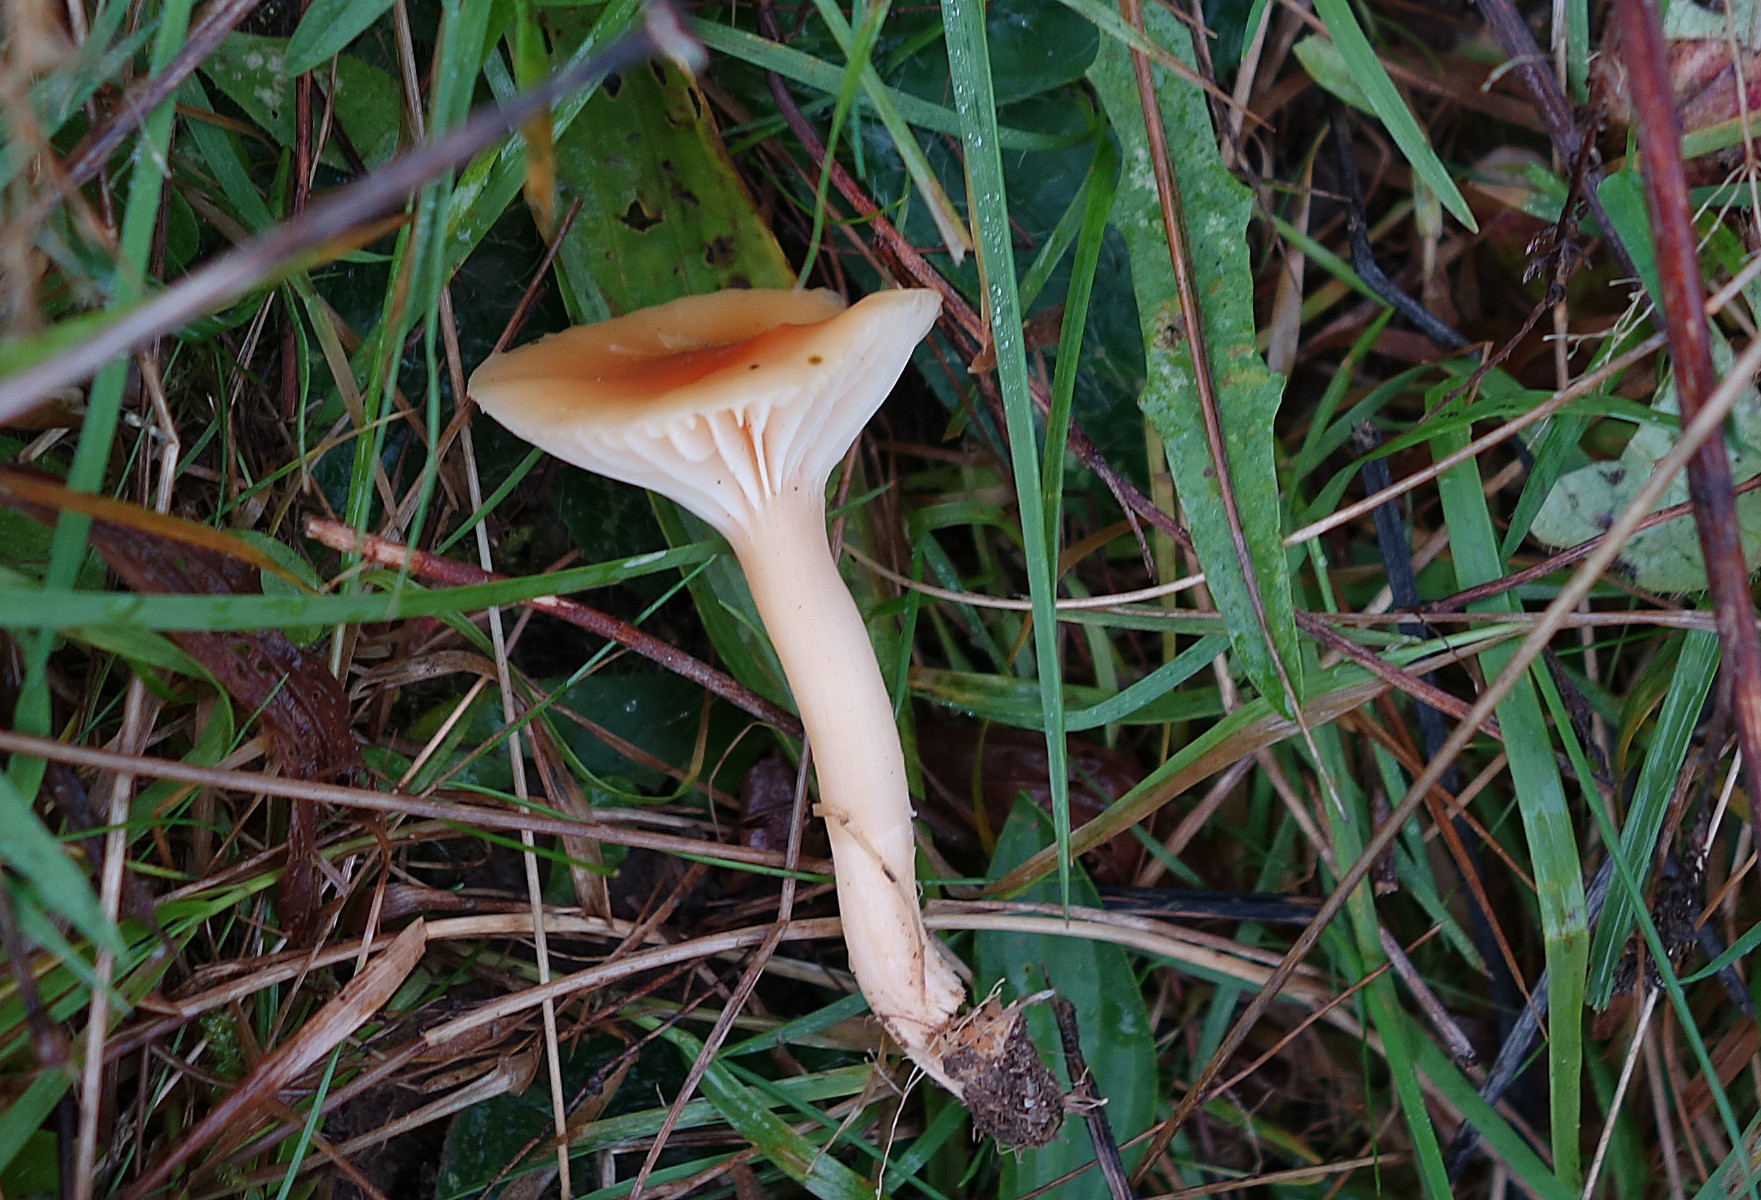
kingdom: Fungi
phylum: Basidiomycota
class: Agaricomycetes
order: Agaricales
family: Hygrophoraceae
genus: Cuphophyllus
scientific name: Cuphophyllus pratensis
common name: eng-vokshat
